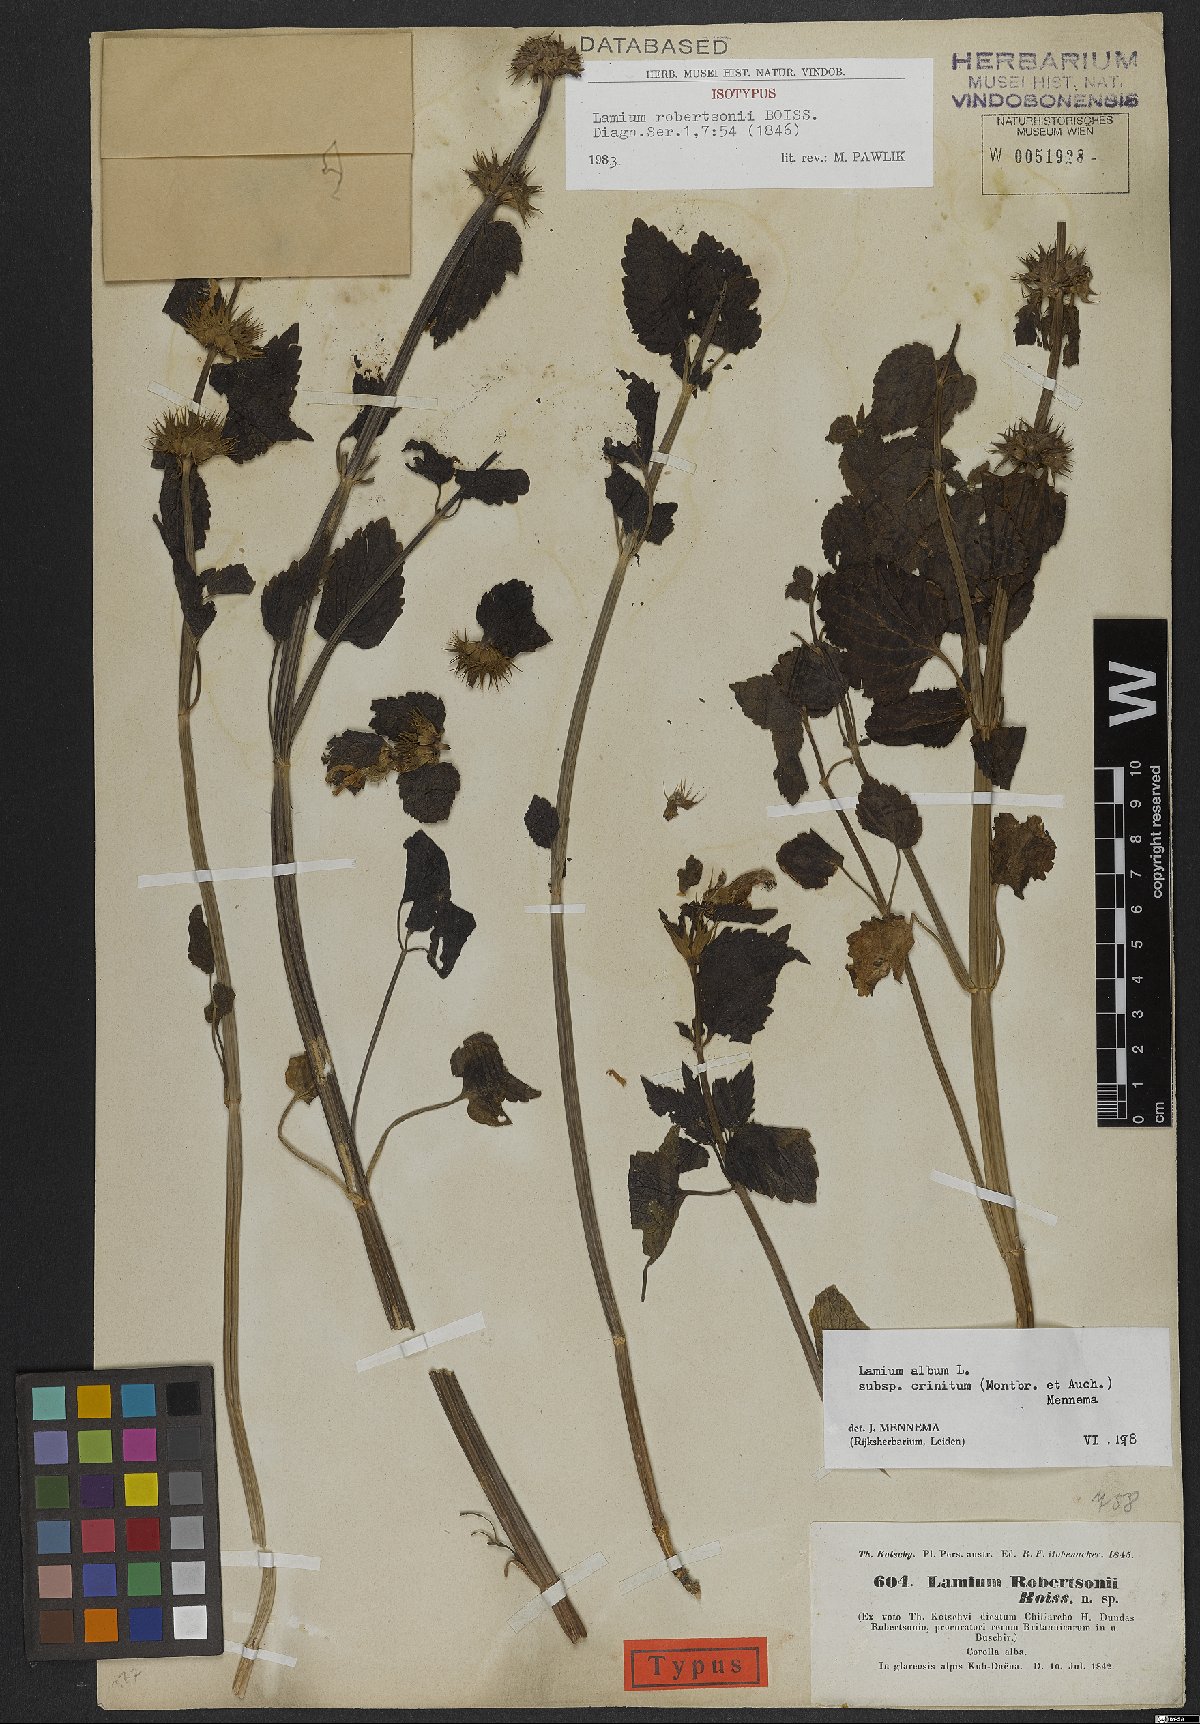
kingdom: Plantae
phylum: Tracheophyta
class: Magnoliopsida
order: Lamiales
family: Lamiaceae
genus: Lamium
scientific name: Lamium album
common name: White dead-nettle
